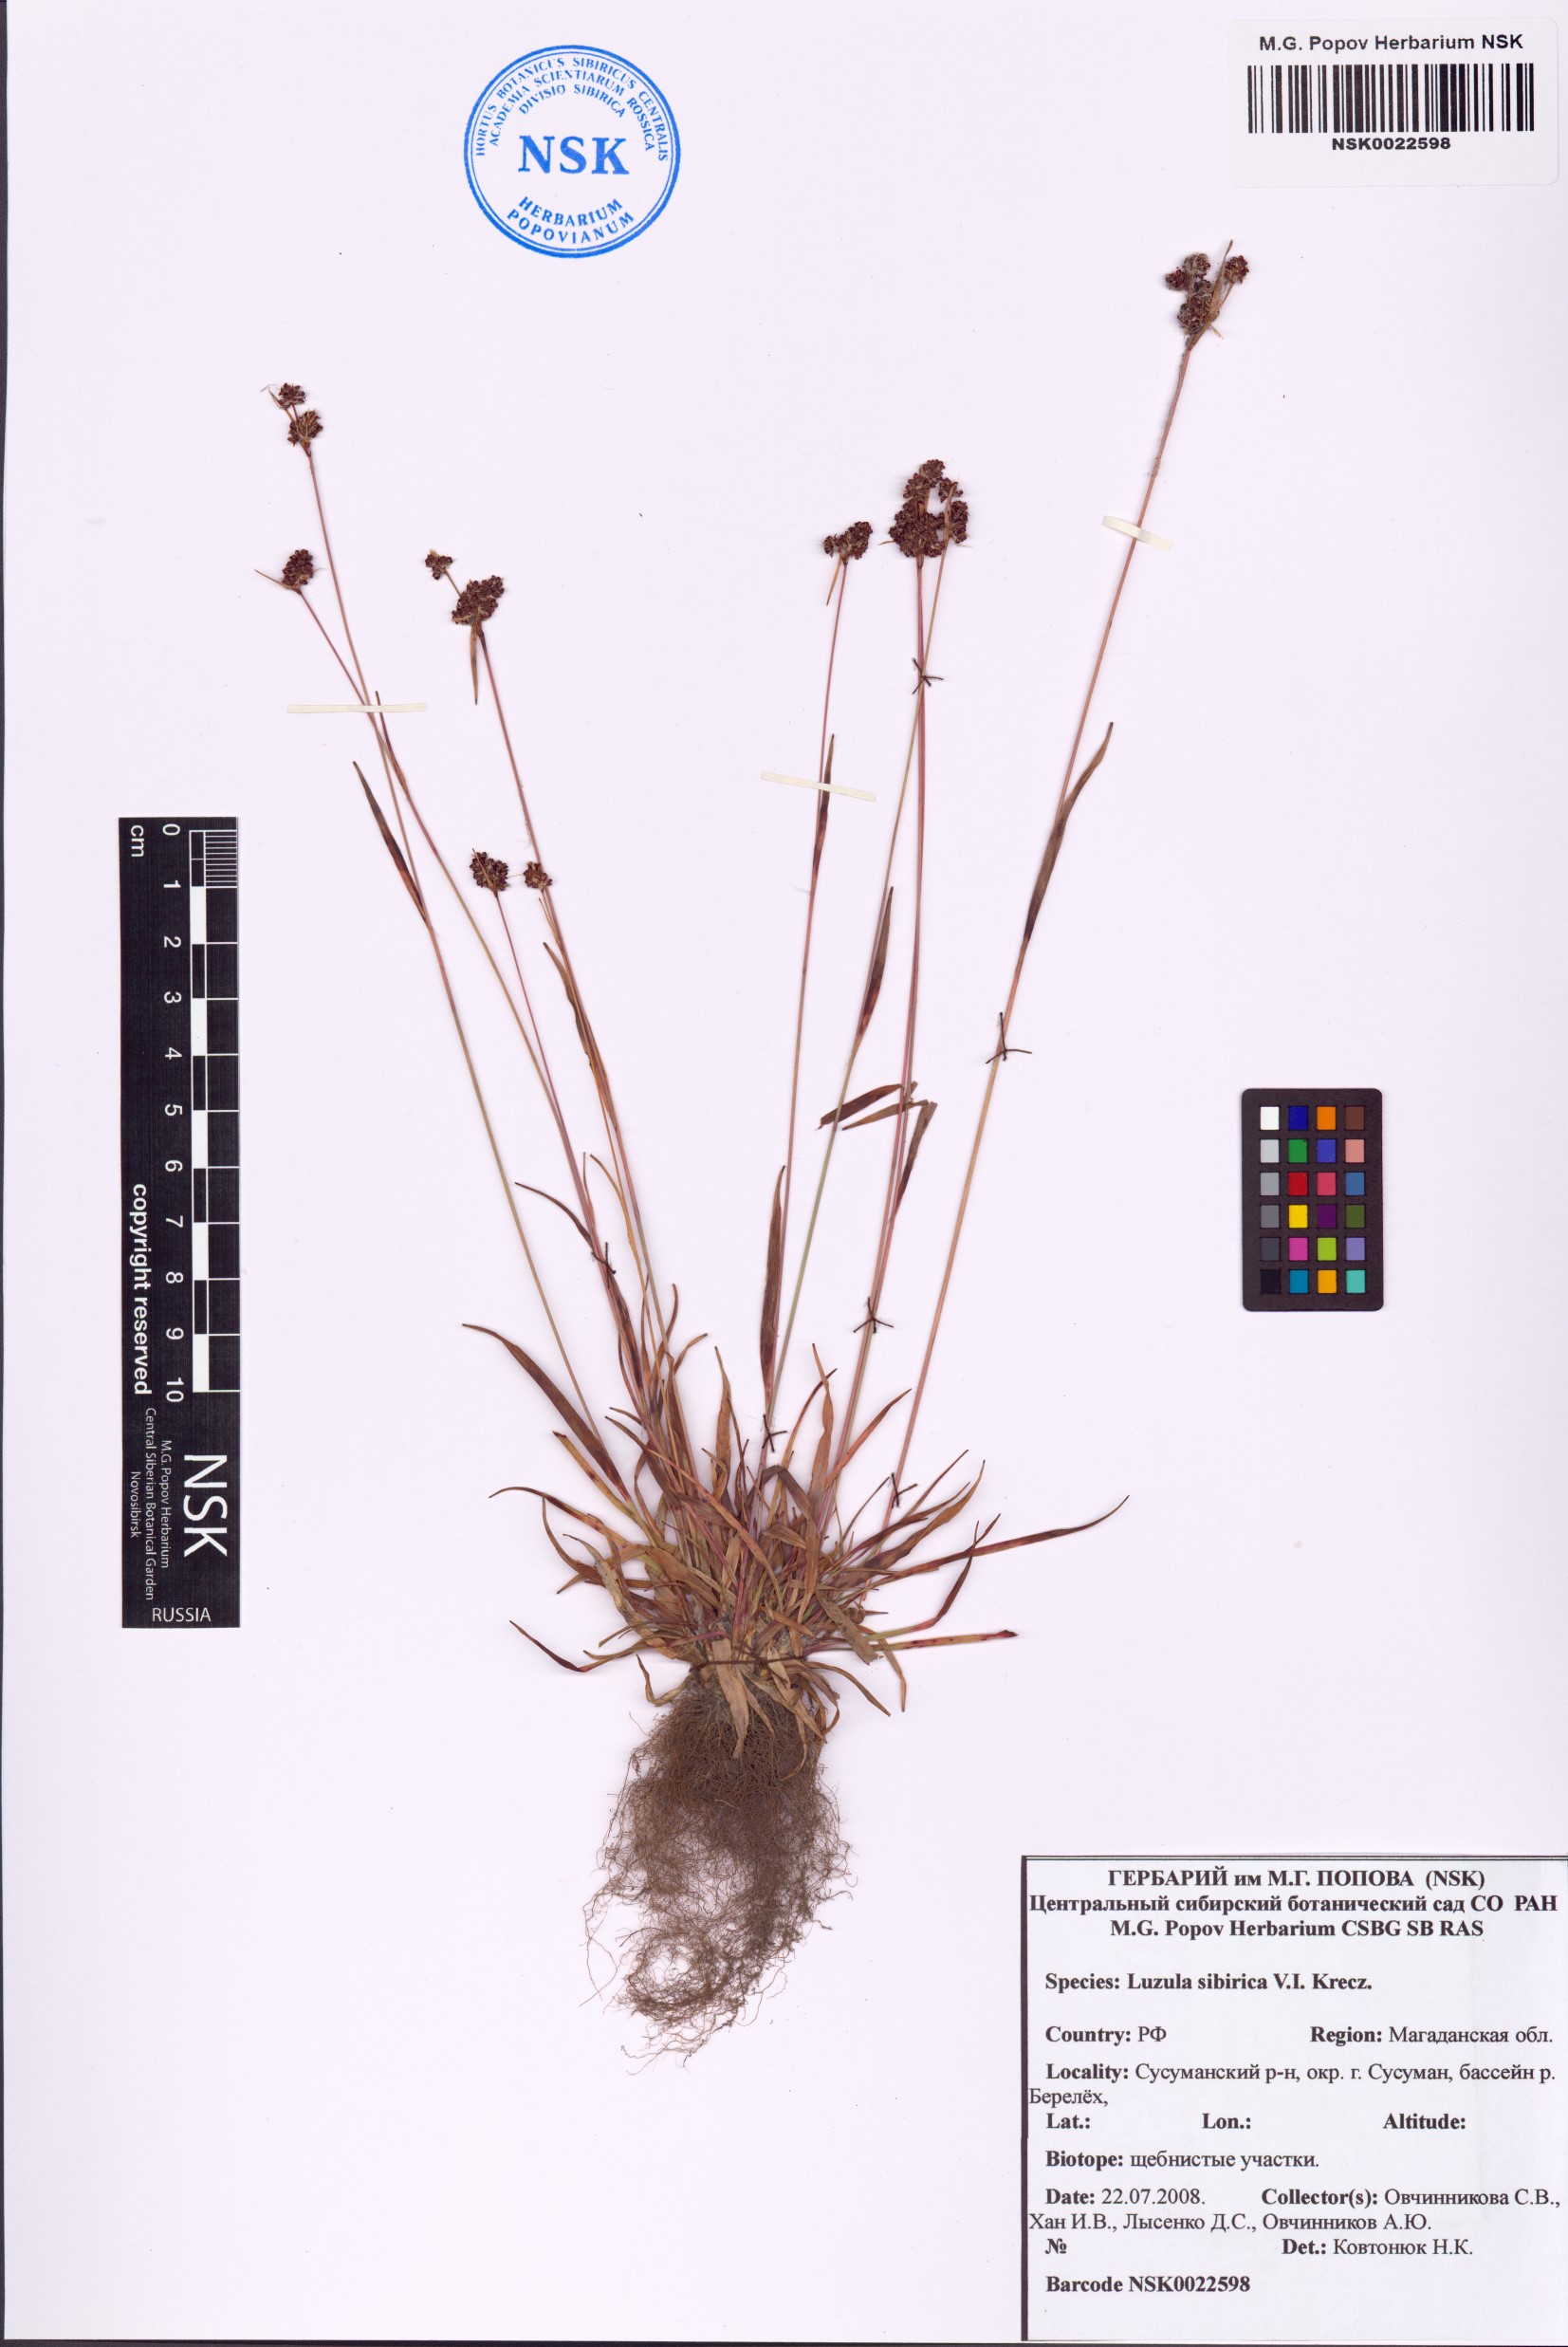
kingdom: Plantae
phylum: Tracheophyta
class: Liliopsida
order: Poales
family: Juncaceae
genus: Luzula
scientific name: Luzula multiflora
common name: Heath wood-rush
